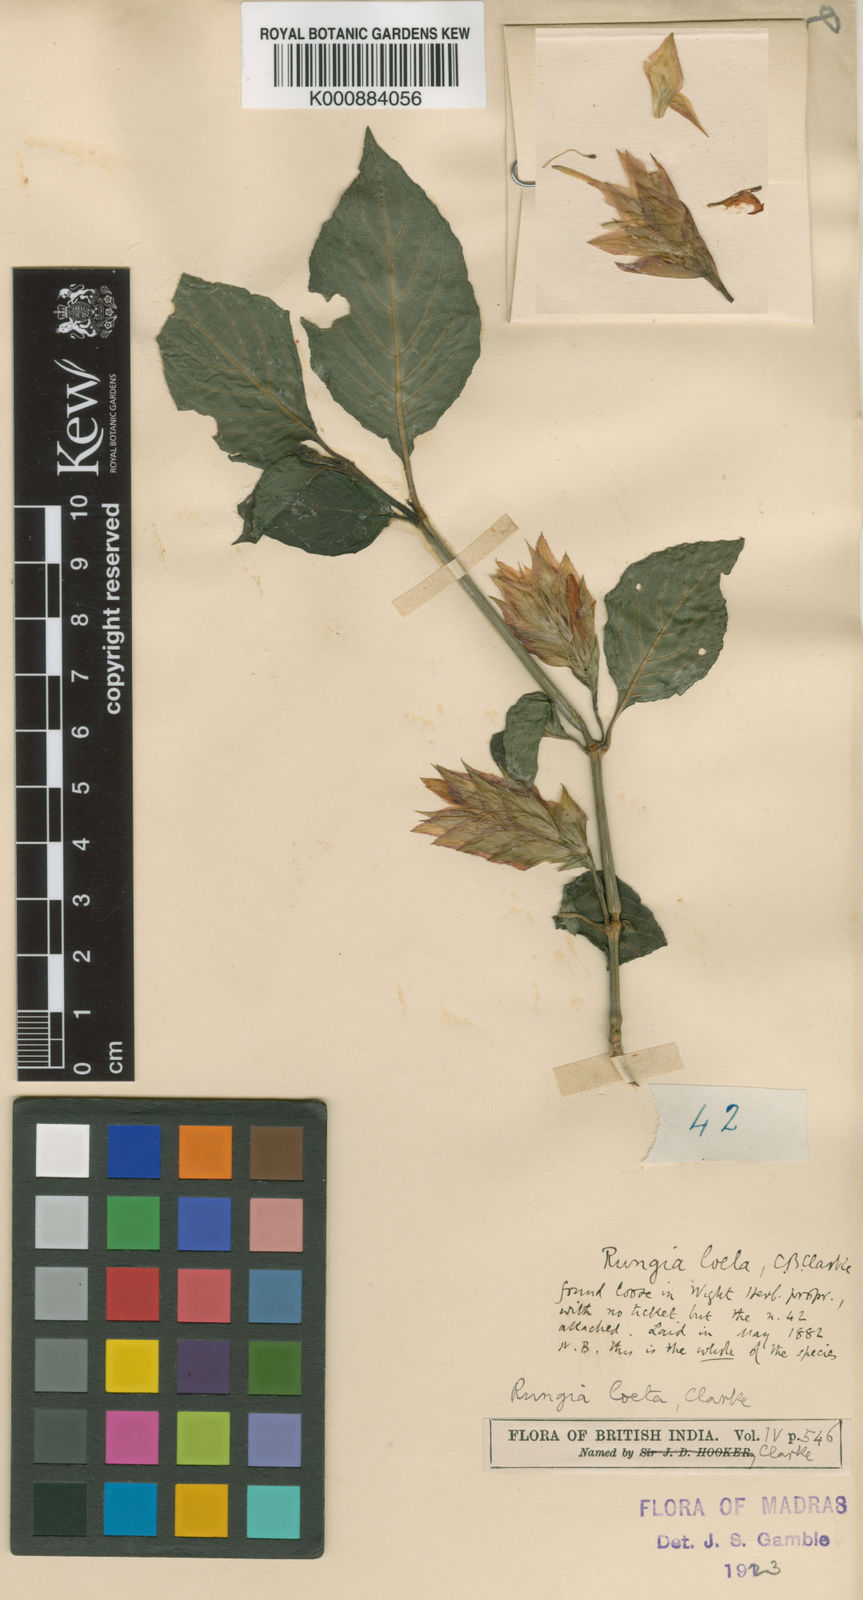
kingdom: Plantae
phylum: Tracheophyta
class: Magnoliopsida
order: Lamiales
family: Acanthaceae
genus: Monechma
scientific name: Monechma laeta
